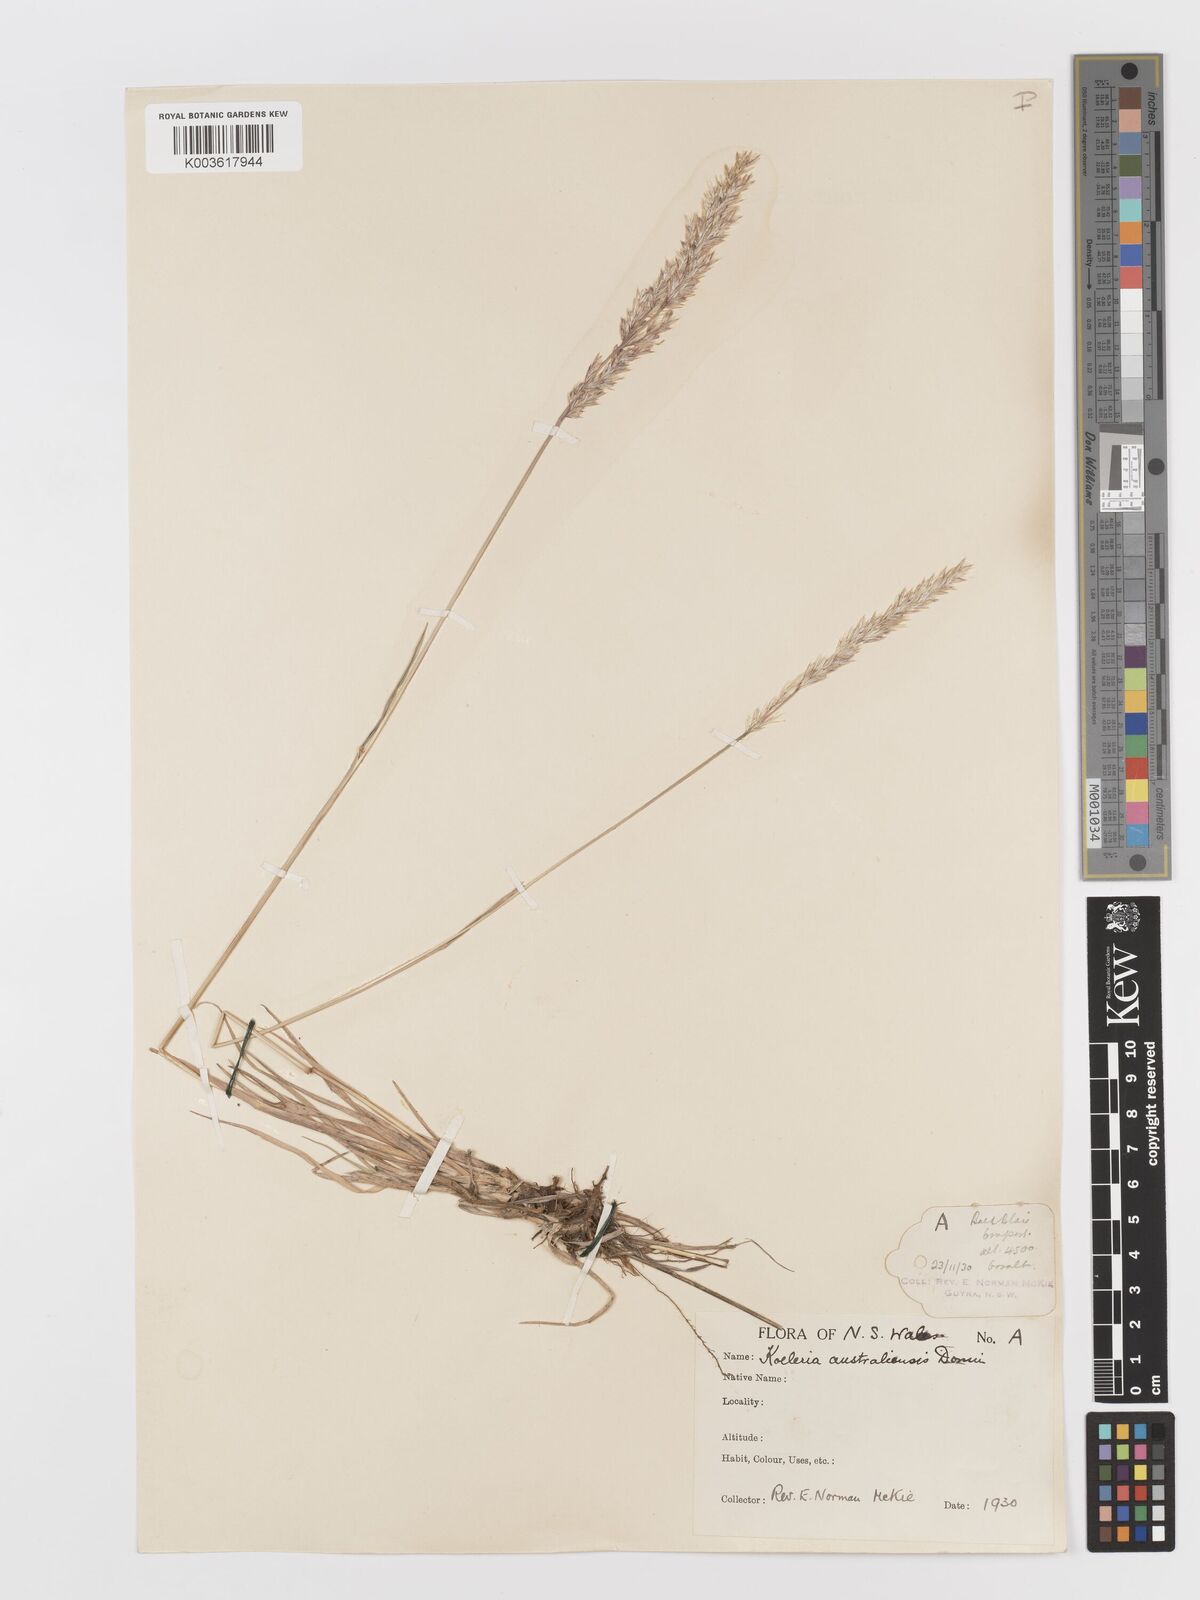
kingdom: Plantae
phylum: Tracheophyta
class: Liliopsida
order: Poales
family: Poaceae
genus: Koeleria
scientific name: Koeleria macrantha
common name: Crested hair-grass
